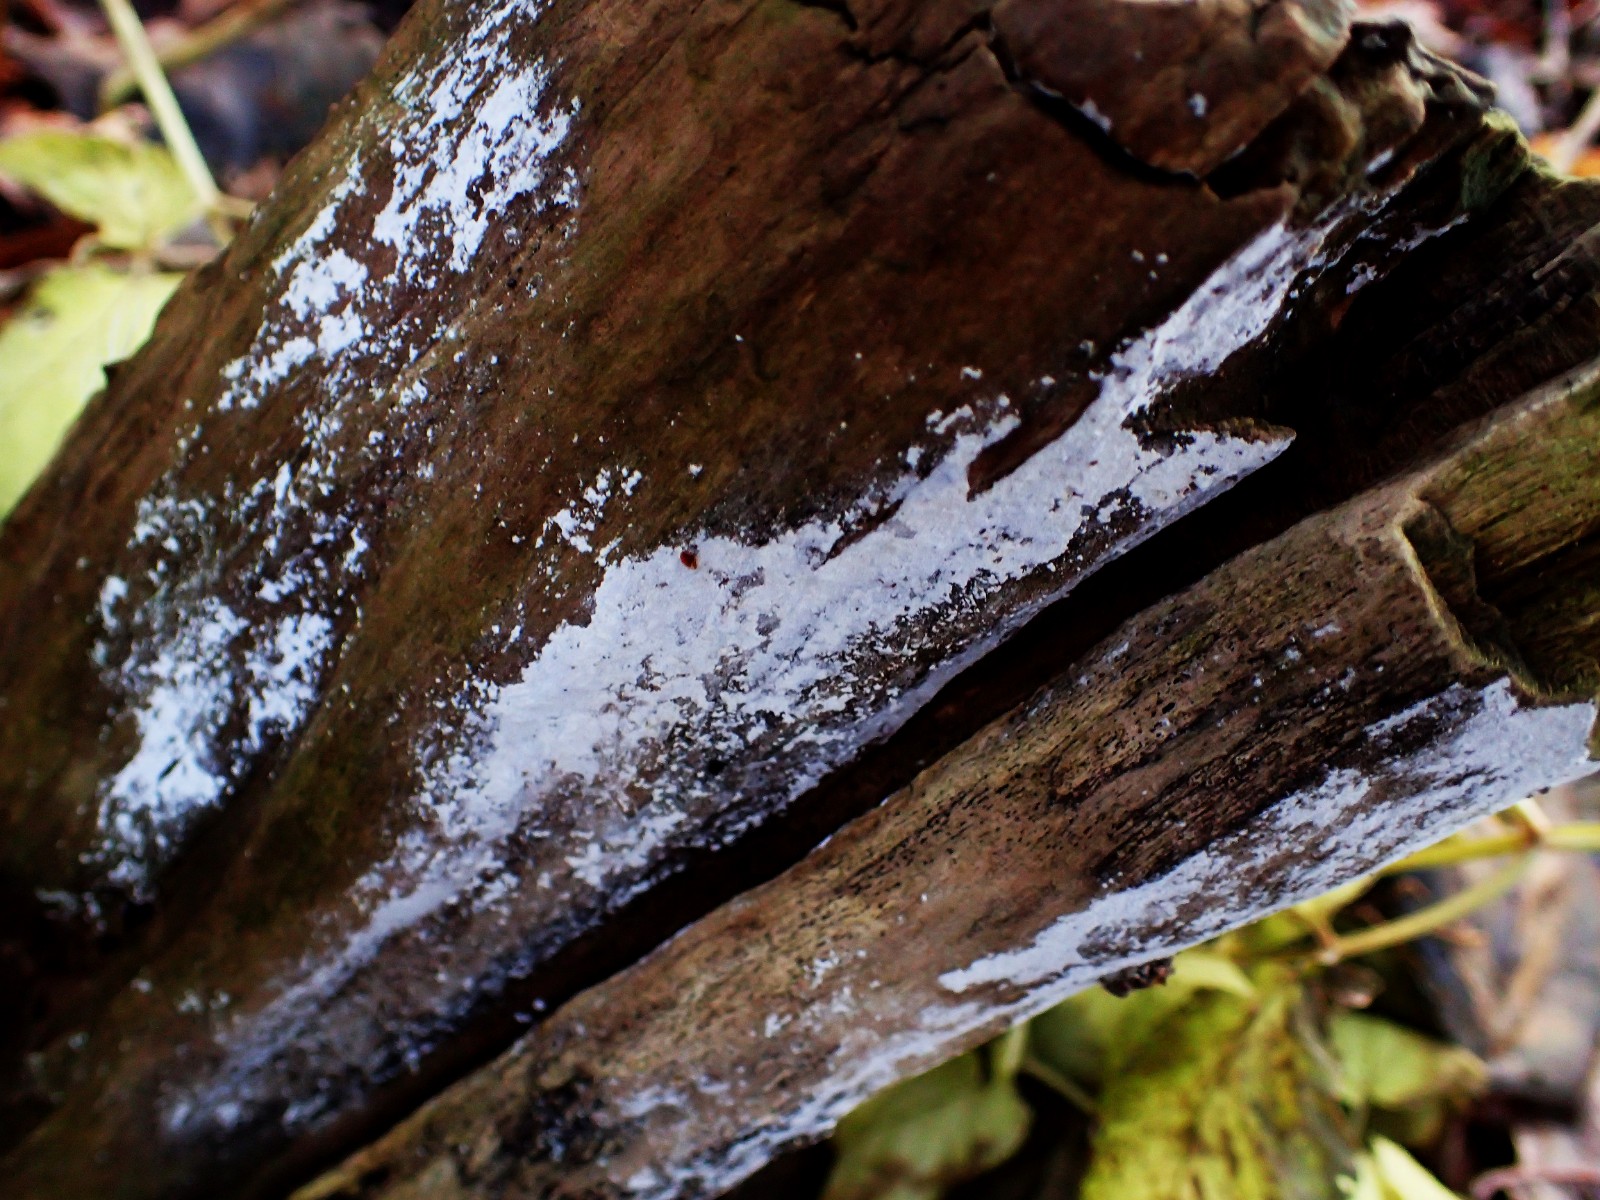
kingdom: Fungi
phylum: Basidiomycota
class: Agaricomycetes
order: Corticiales
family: Corticiaceae
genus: Lyomyces
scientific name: Lyomyces sambuci
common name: almindelig hyldehinde
